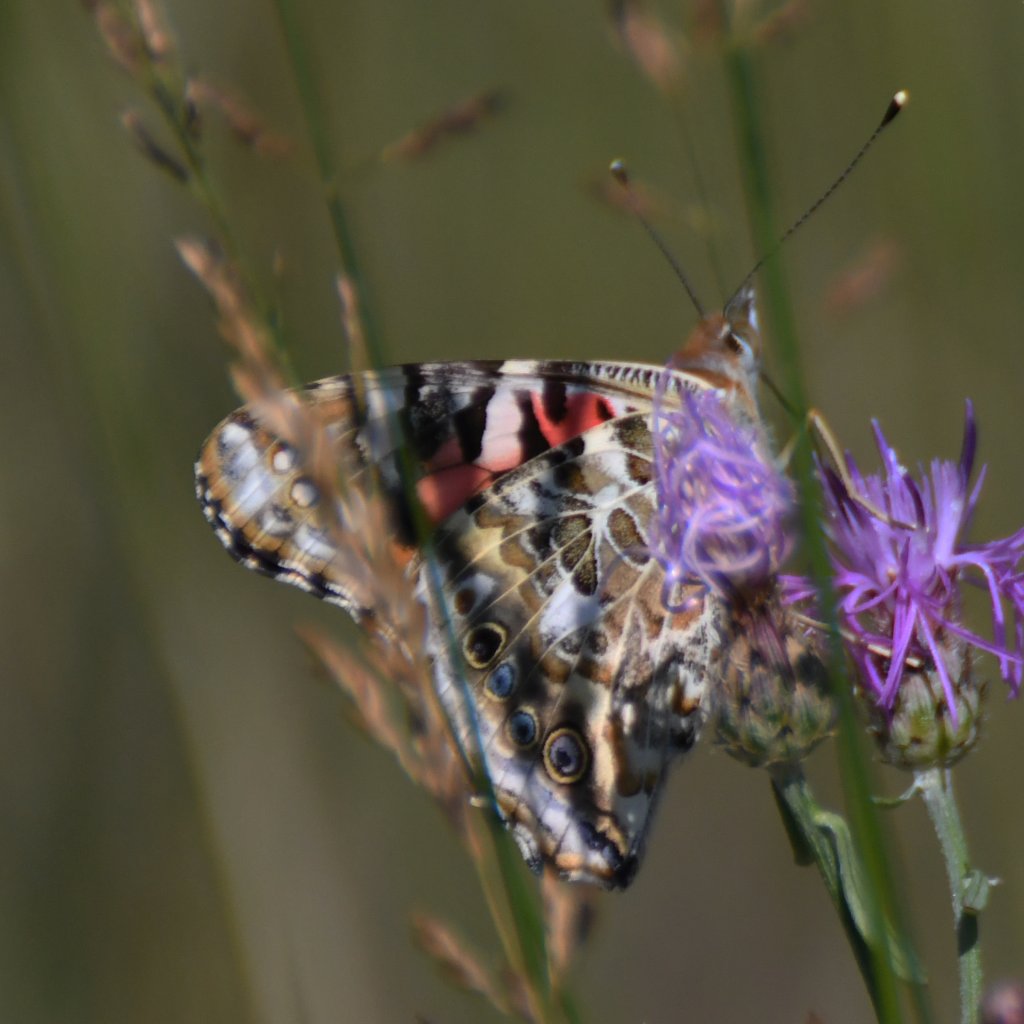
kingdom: Animalia
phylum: Arthropoda
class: Insecta
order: Lepidoptera
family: Nymphalidae
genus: Vanessa
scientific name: Vanessa cardui
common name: Painted Lady
